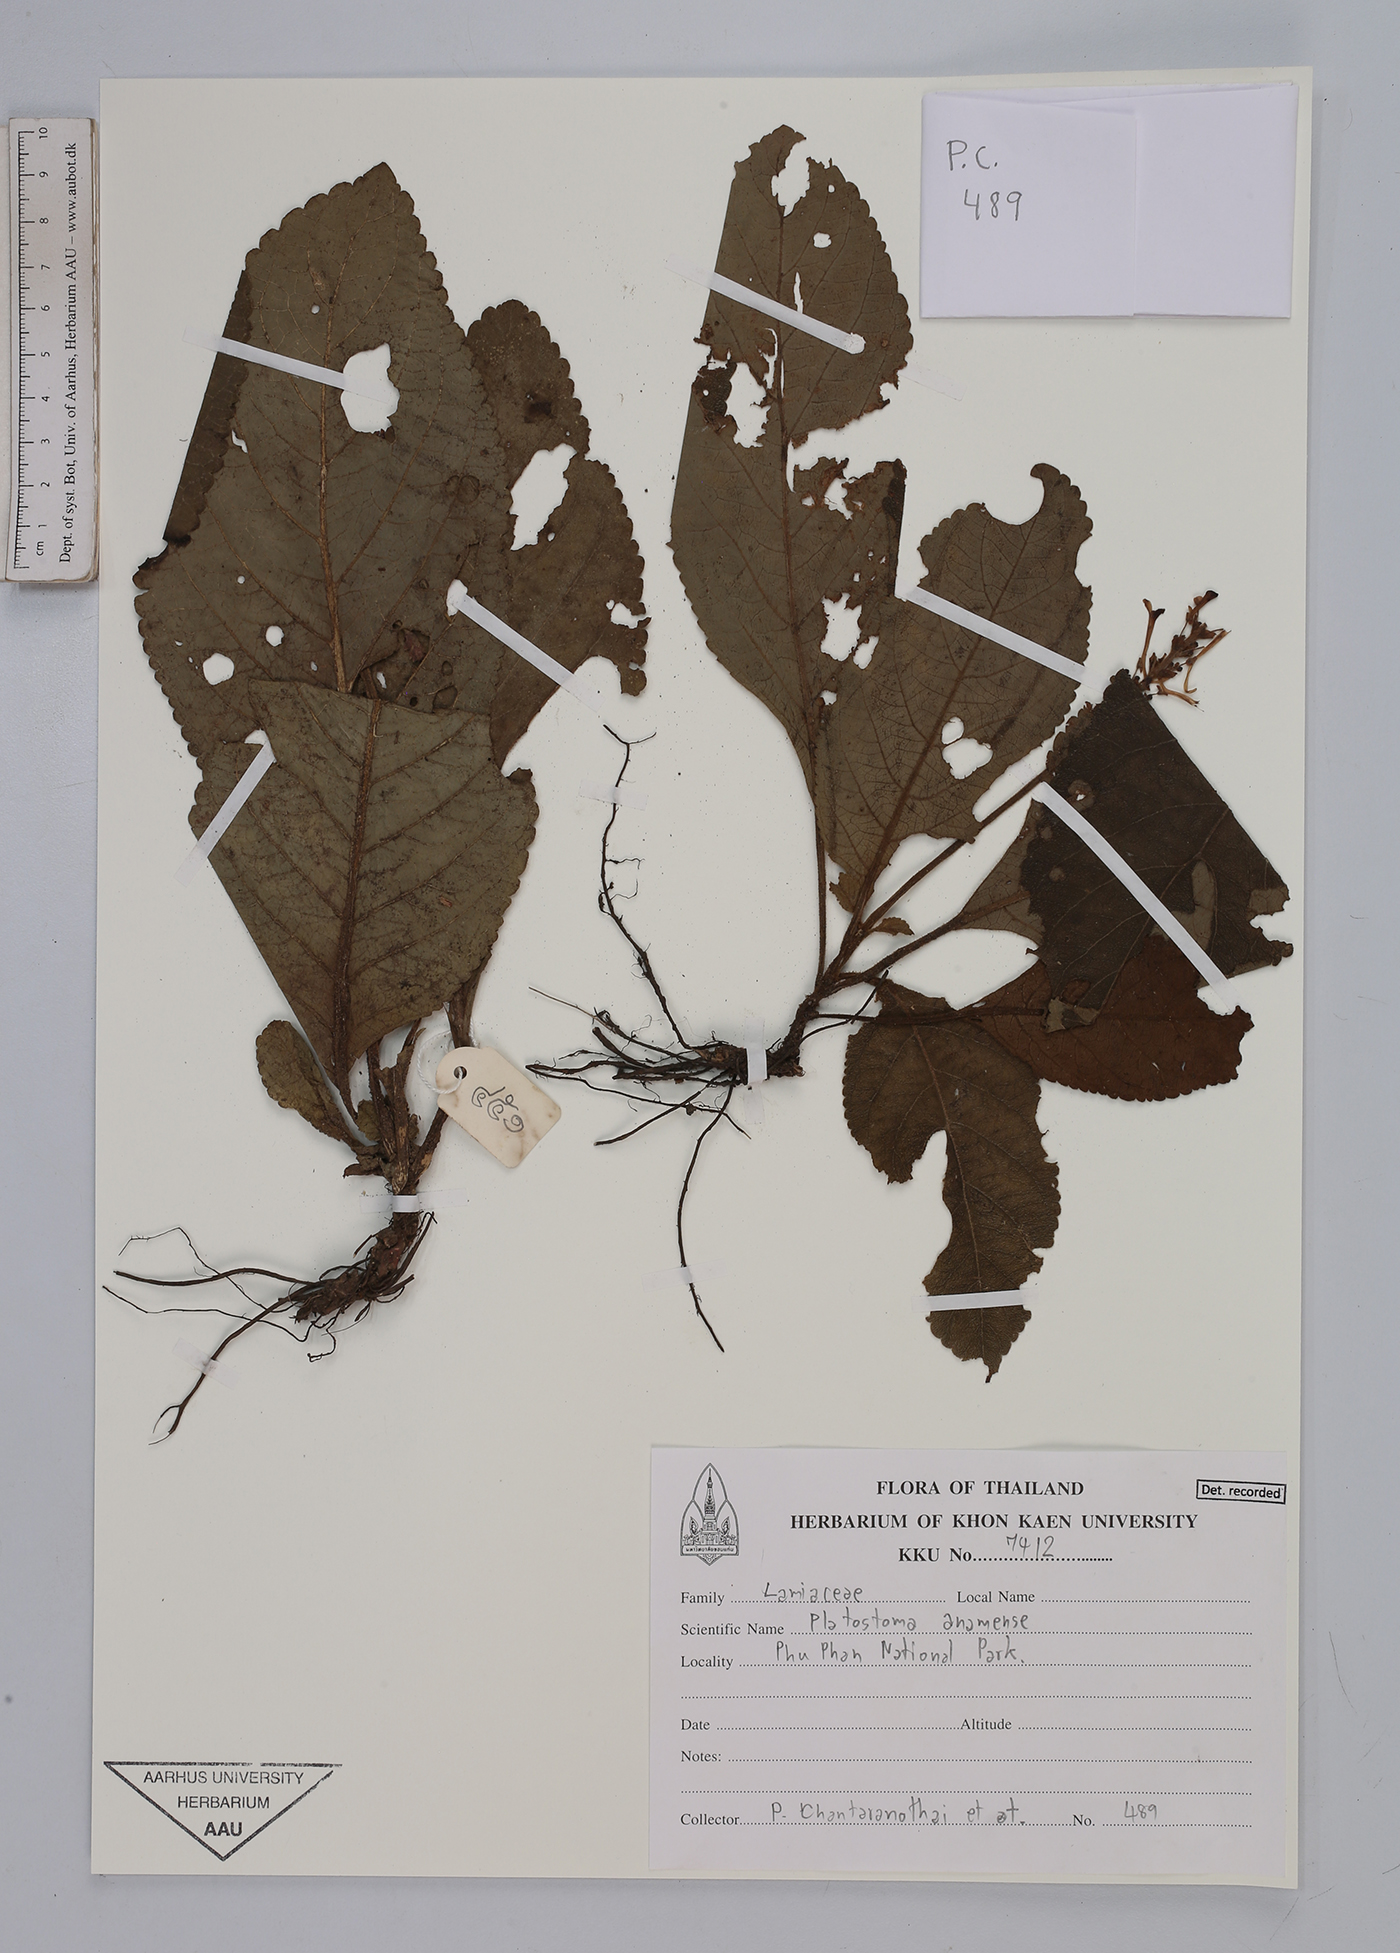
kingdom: Plantae
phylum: Tracheophyta
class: Magnoliopsida
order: Lamiales
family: Lamiaceae
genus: Platostoma
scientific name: Platostoma annamense
